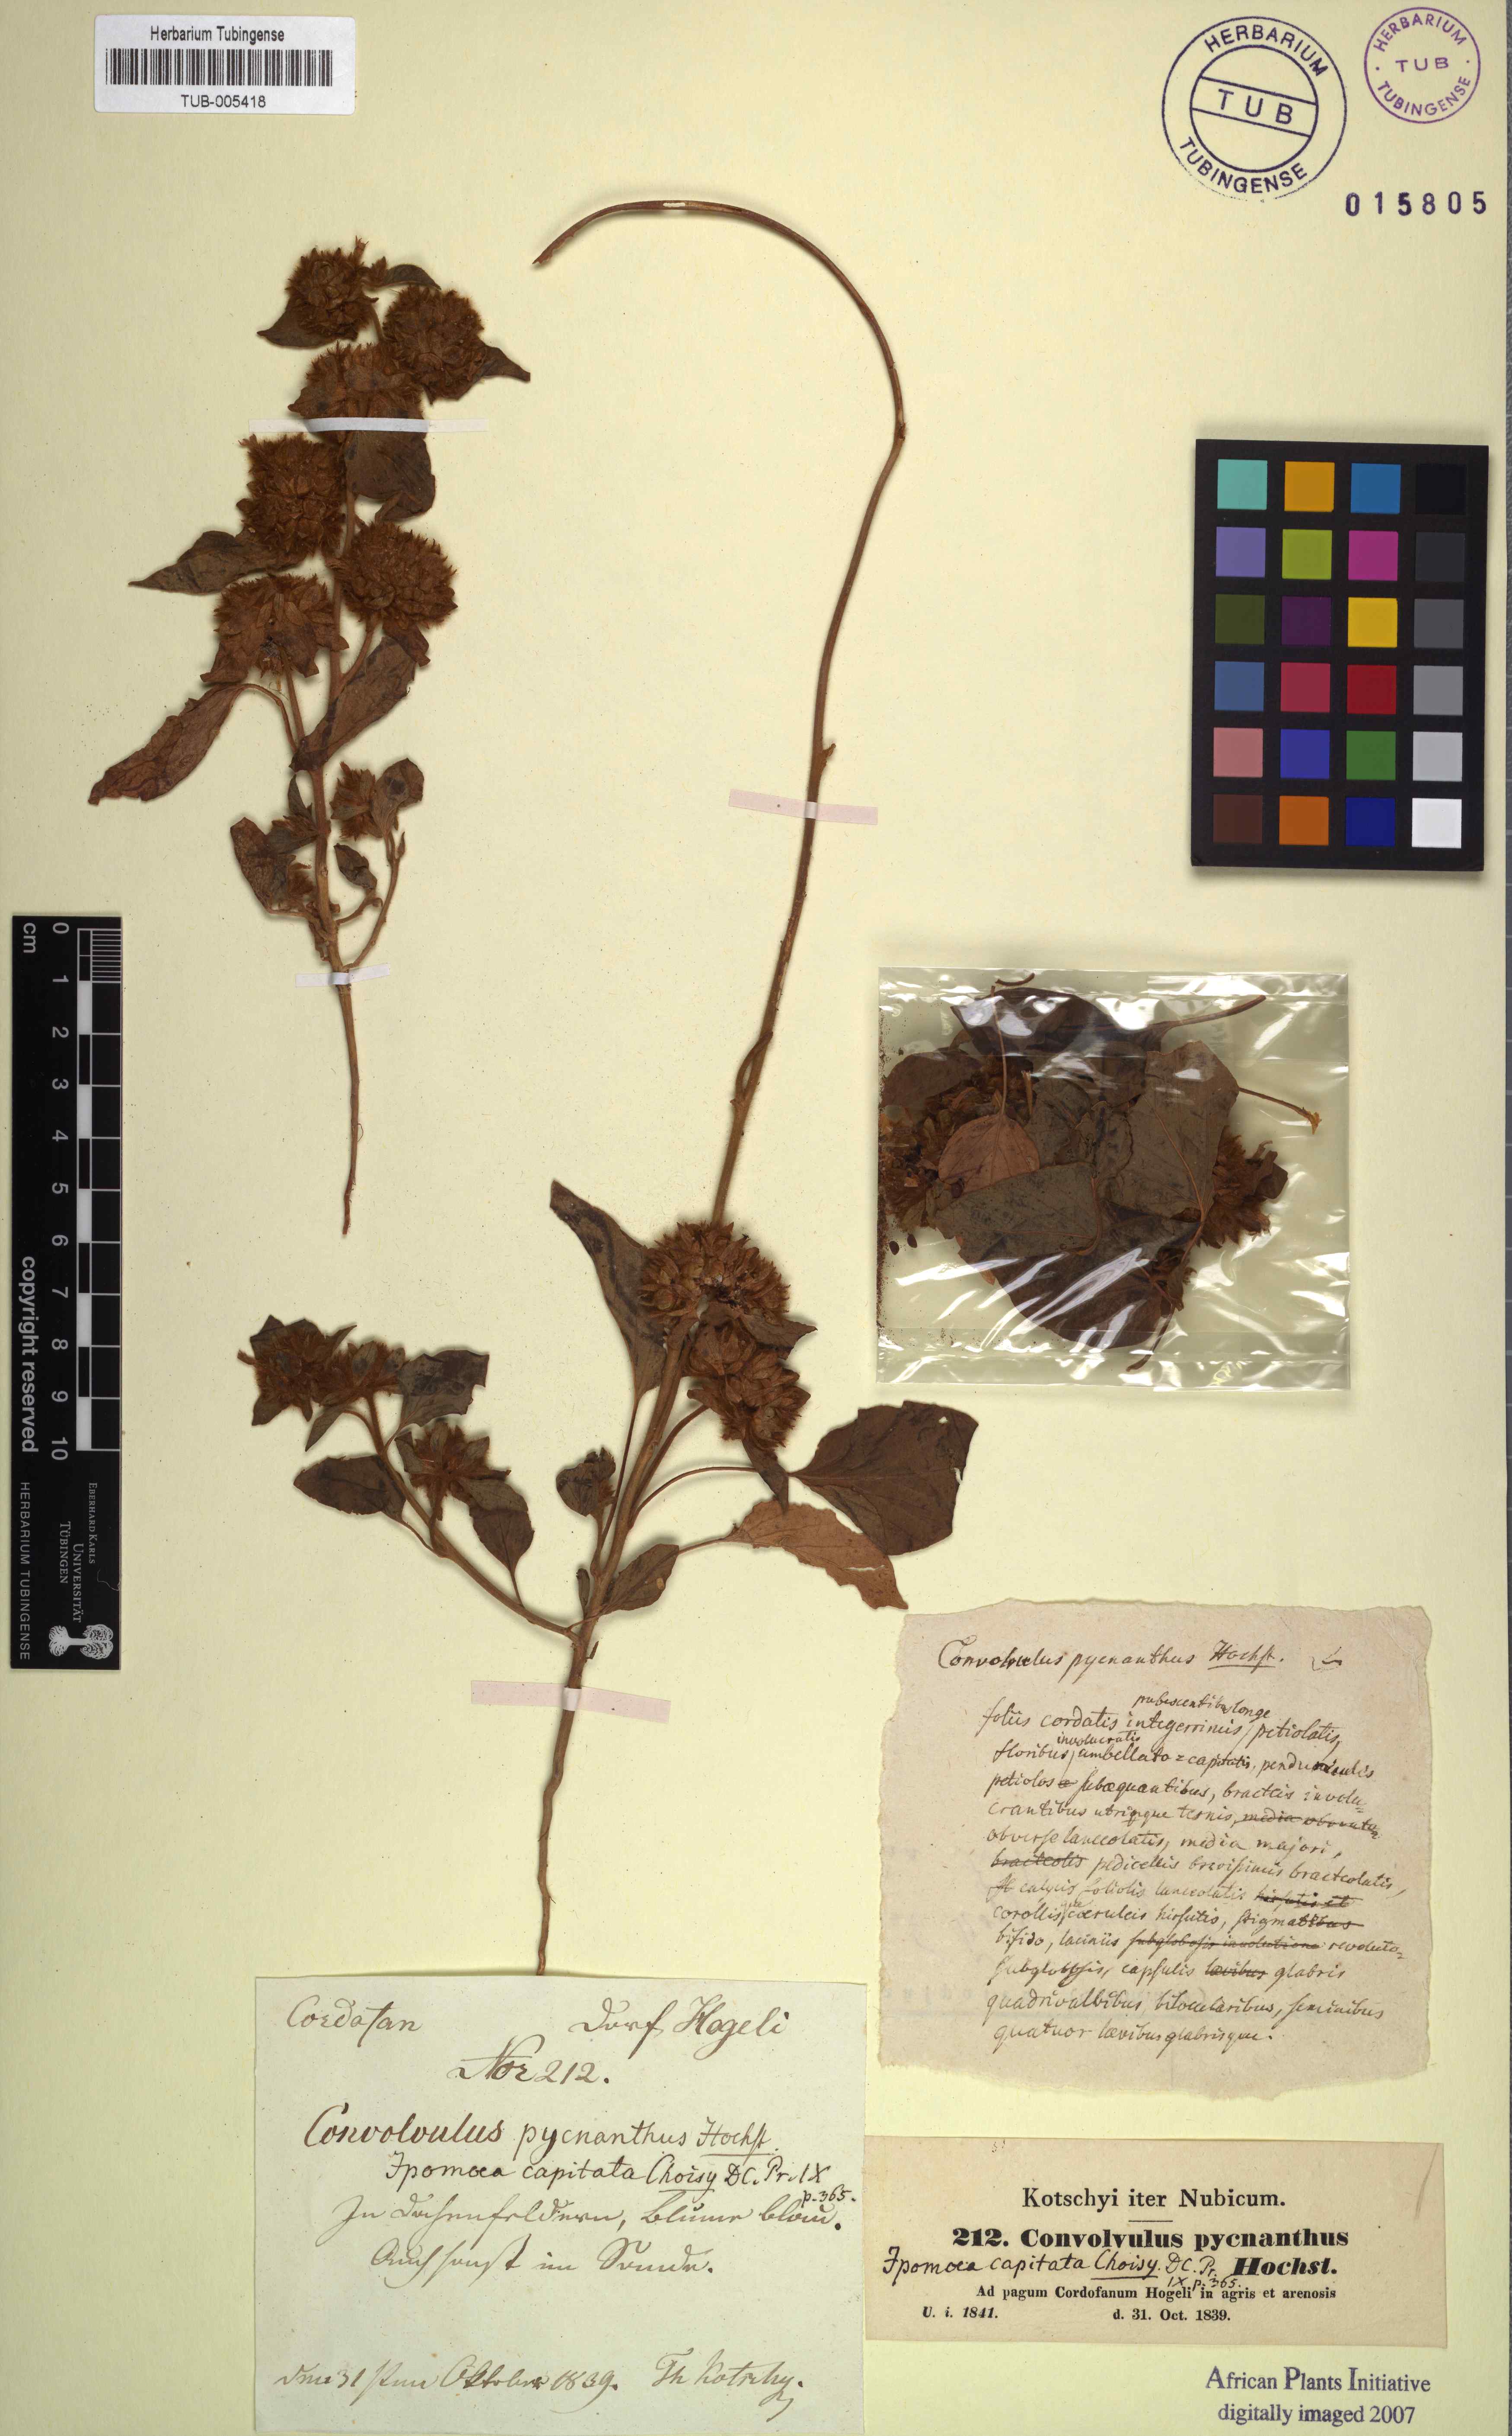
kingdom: Plantae
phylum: Tracheophyta
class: Magnoliopsida
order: Solanales
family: Convolvulaceae
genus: Jacquemontia
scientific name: Jacquemontia tamnifolia
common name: Hairy clustervine
